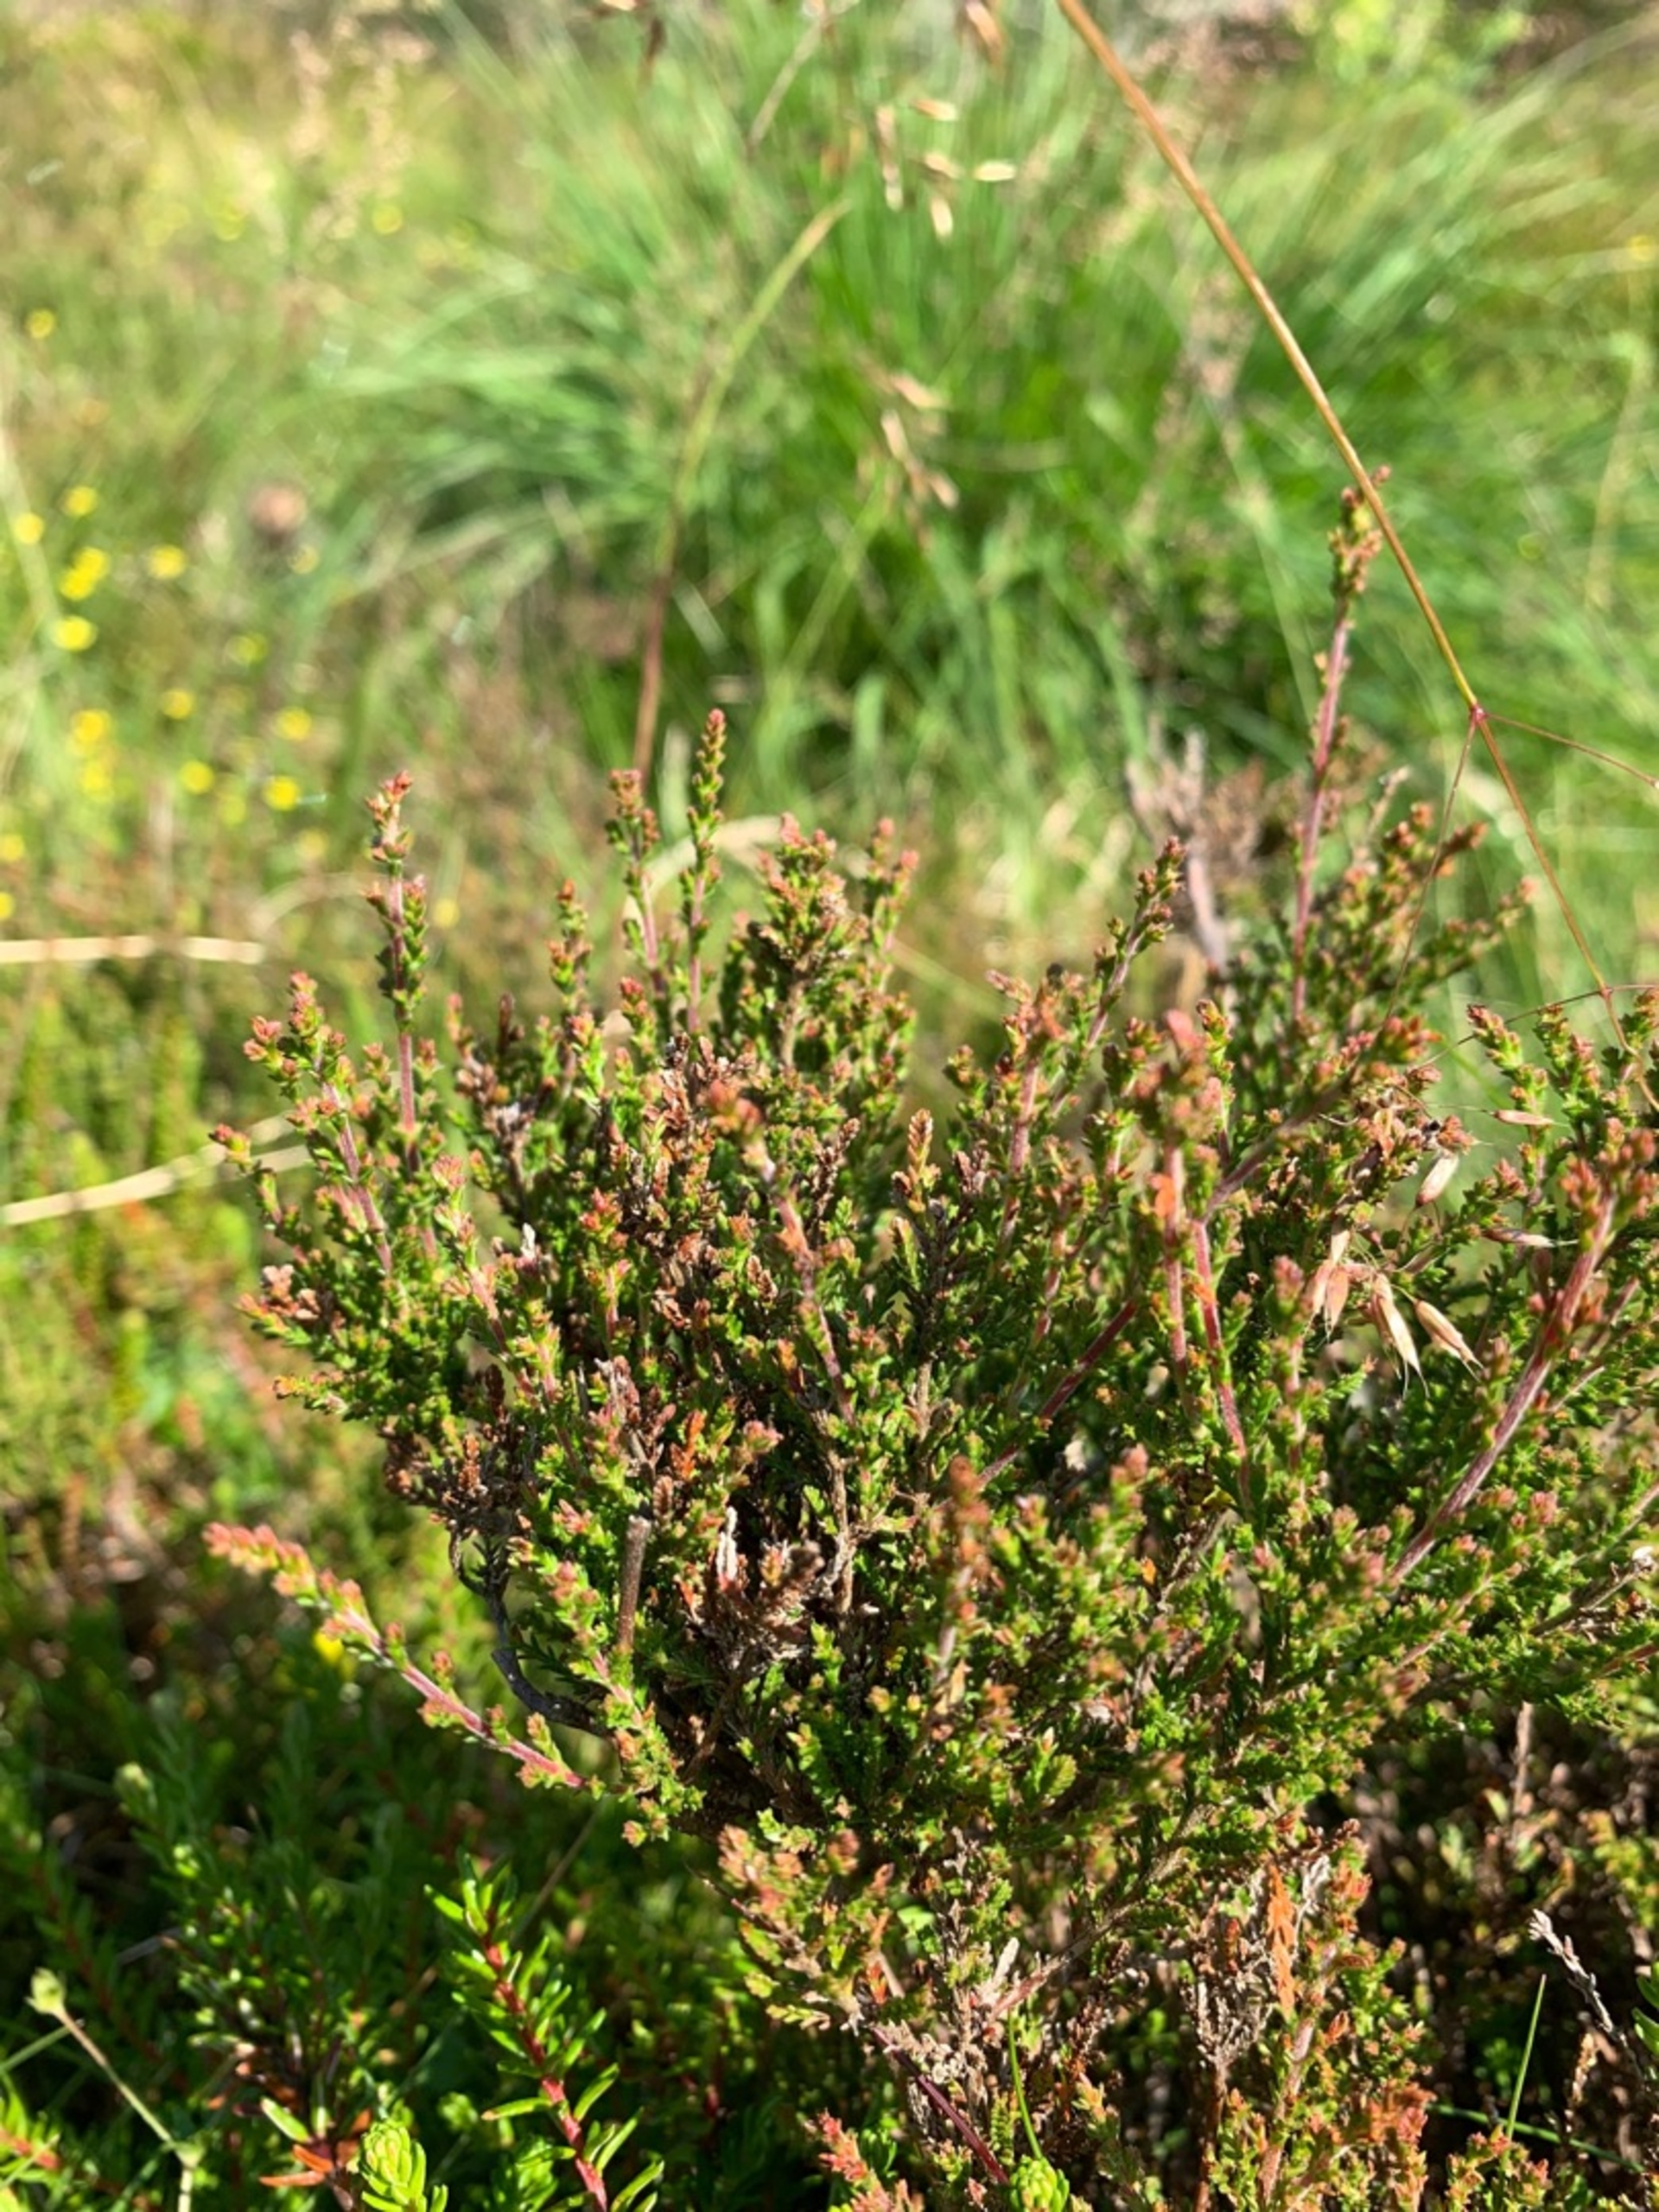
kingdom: Plantae
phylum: Tracheophyta
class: Magnoliopsida
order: Ericales
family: Ericaceae
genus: Calluna
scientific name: Calluna vulgaris
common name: Hedelyng
